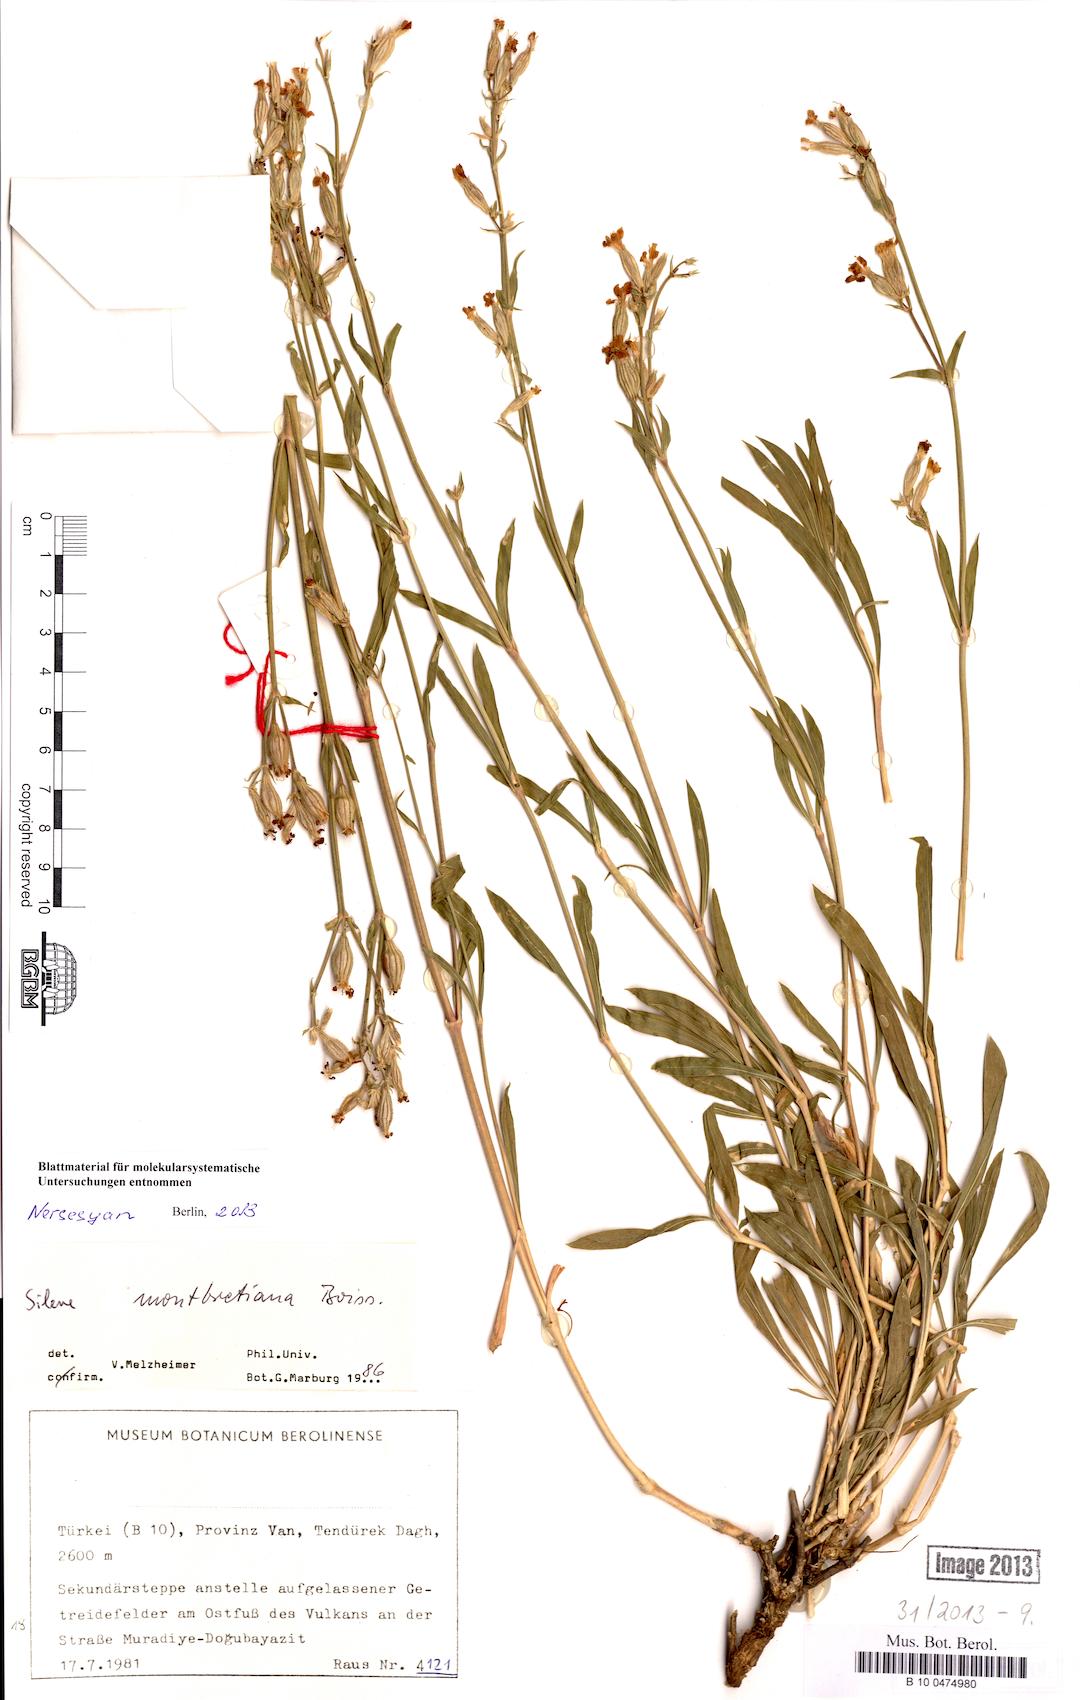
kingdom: Plantae
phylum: Tracheophyta
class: Magnoliopsida
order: Caryophyllales
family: Caryophyllaceae
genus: Silene
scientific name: Silene
